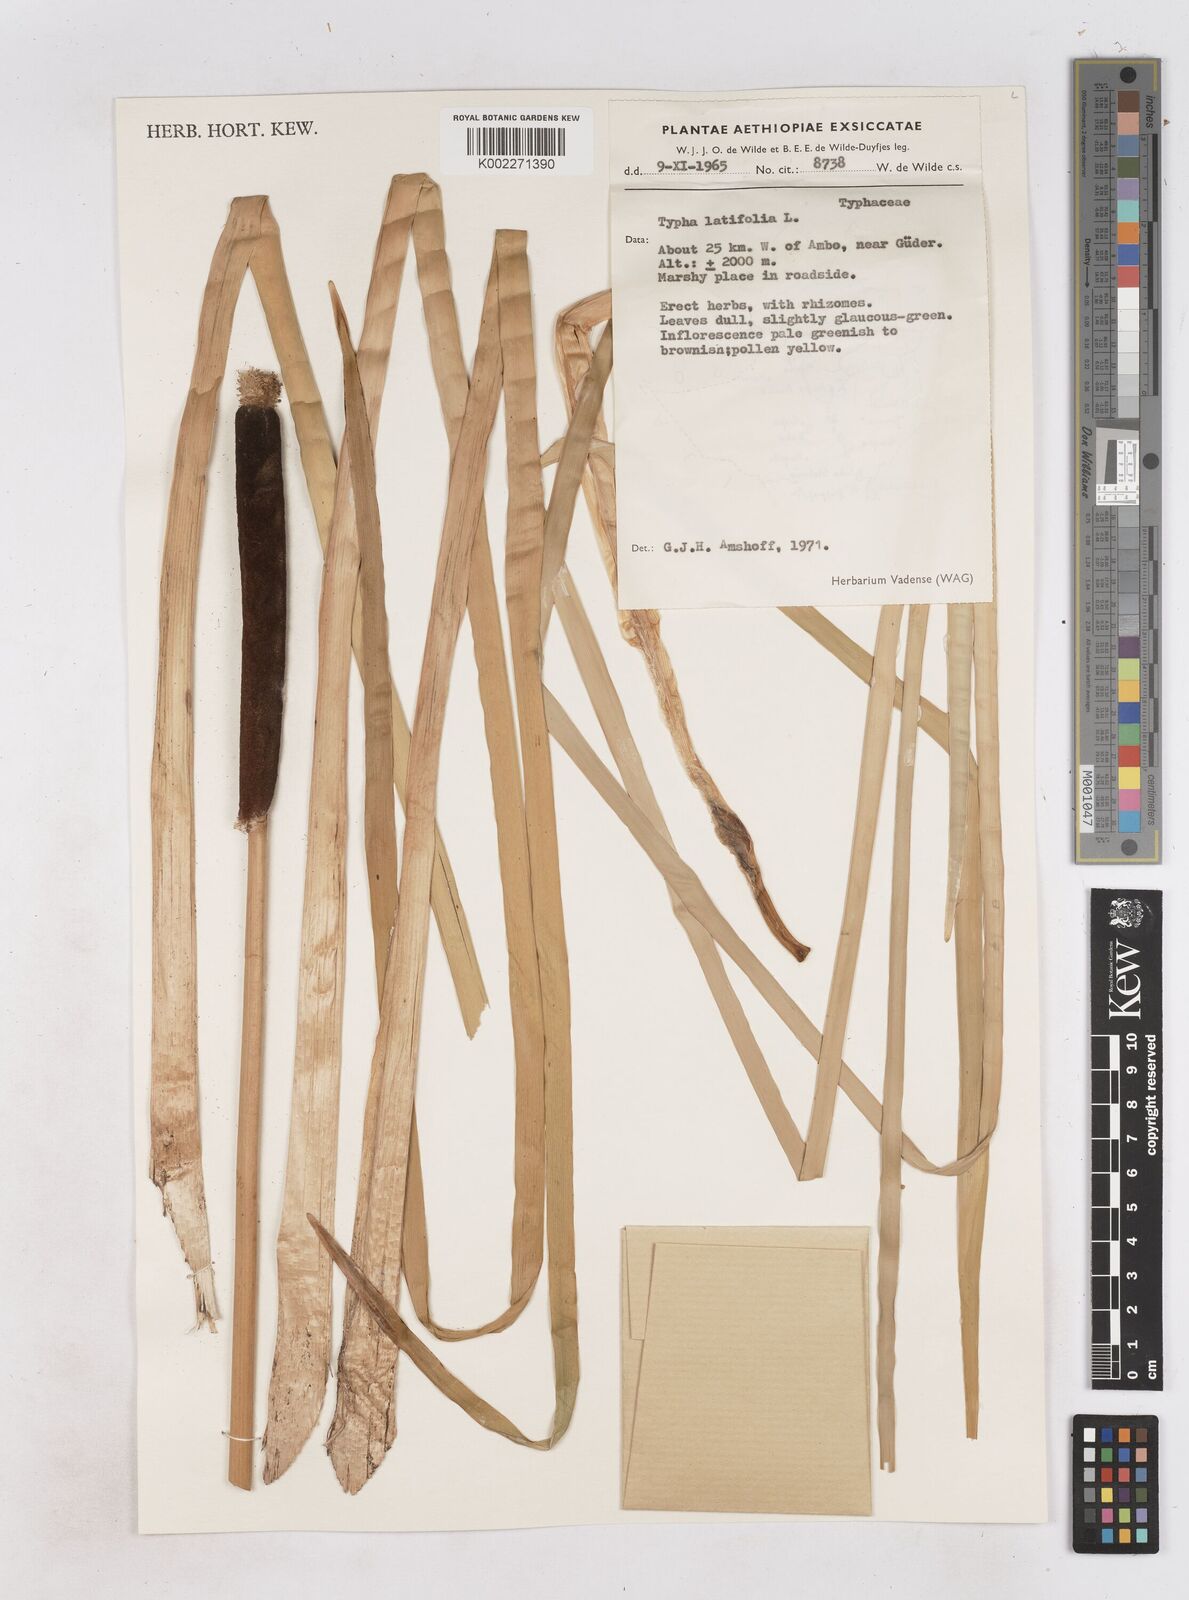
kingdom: Plantae
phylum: Tracheophyta
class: Liliopsida
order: Poales
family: Typhaceae
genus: Typha
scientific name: Typha latifolia
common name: Broadleaf cattail
